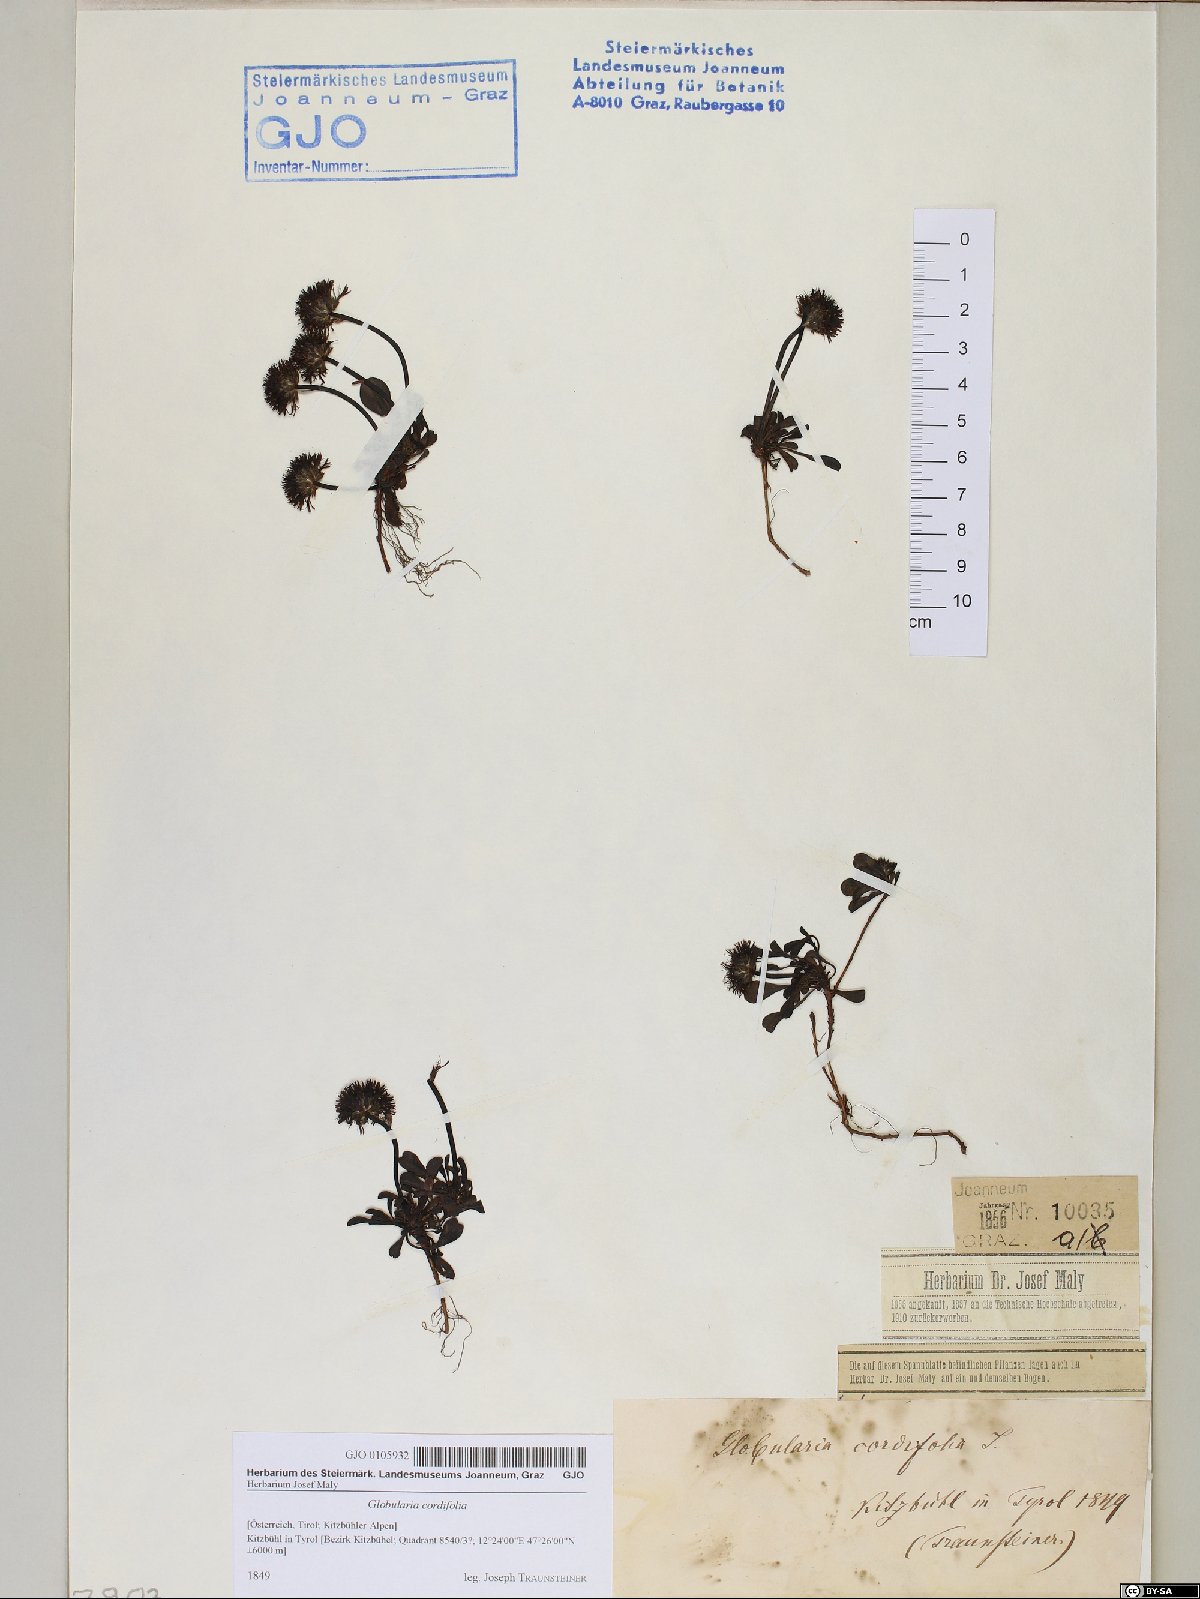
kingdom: Plantae
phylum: Tracheophyta
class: Magnoliopsida
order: Lamiales
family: Plantaginaceae
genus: Globularia
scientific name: Globularia cordifolia
